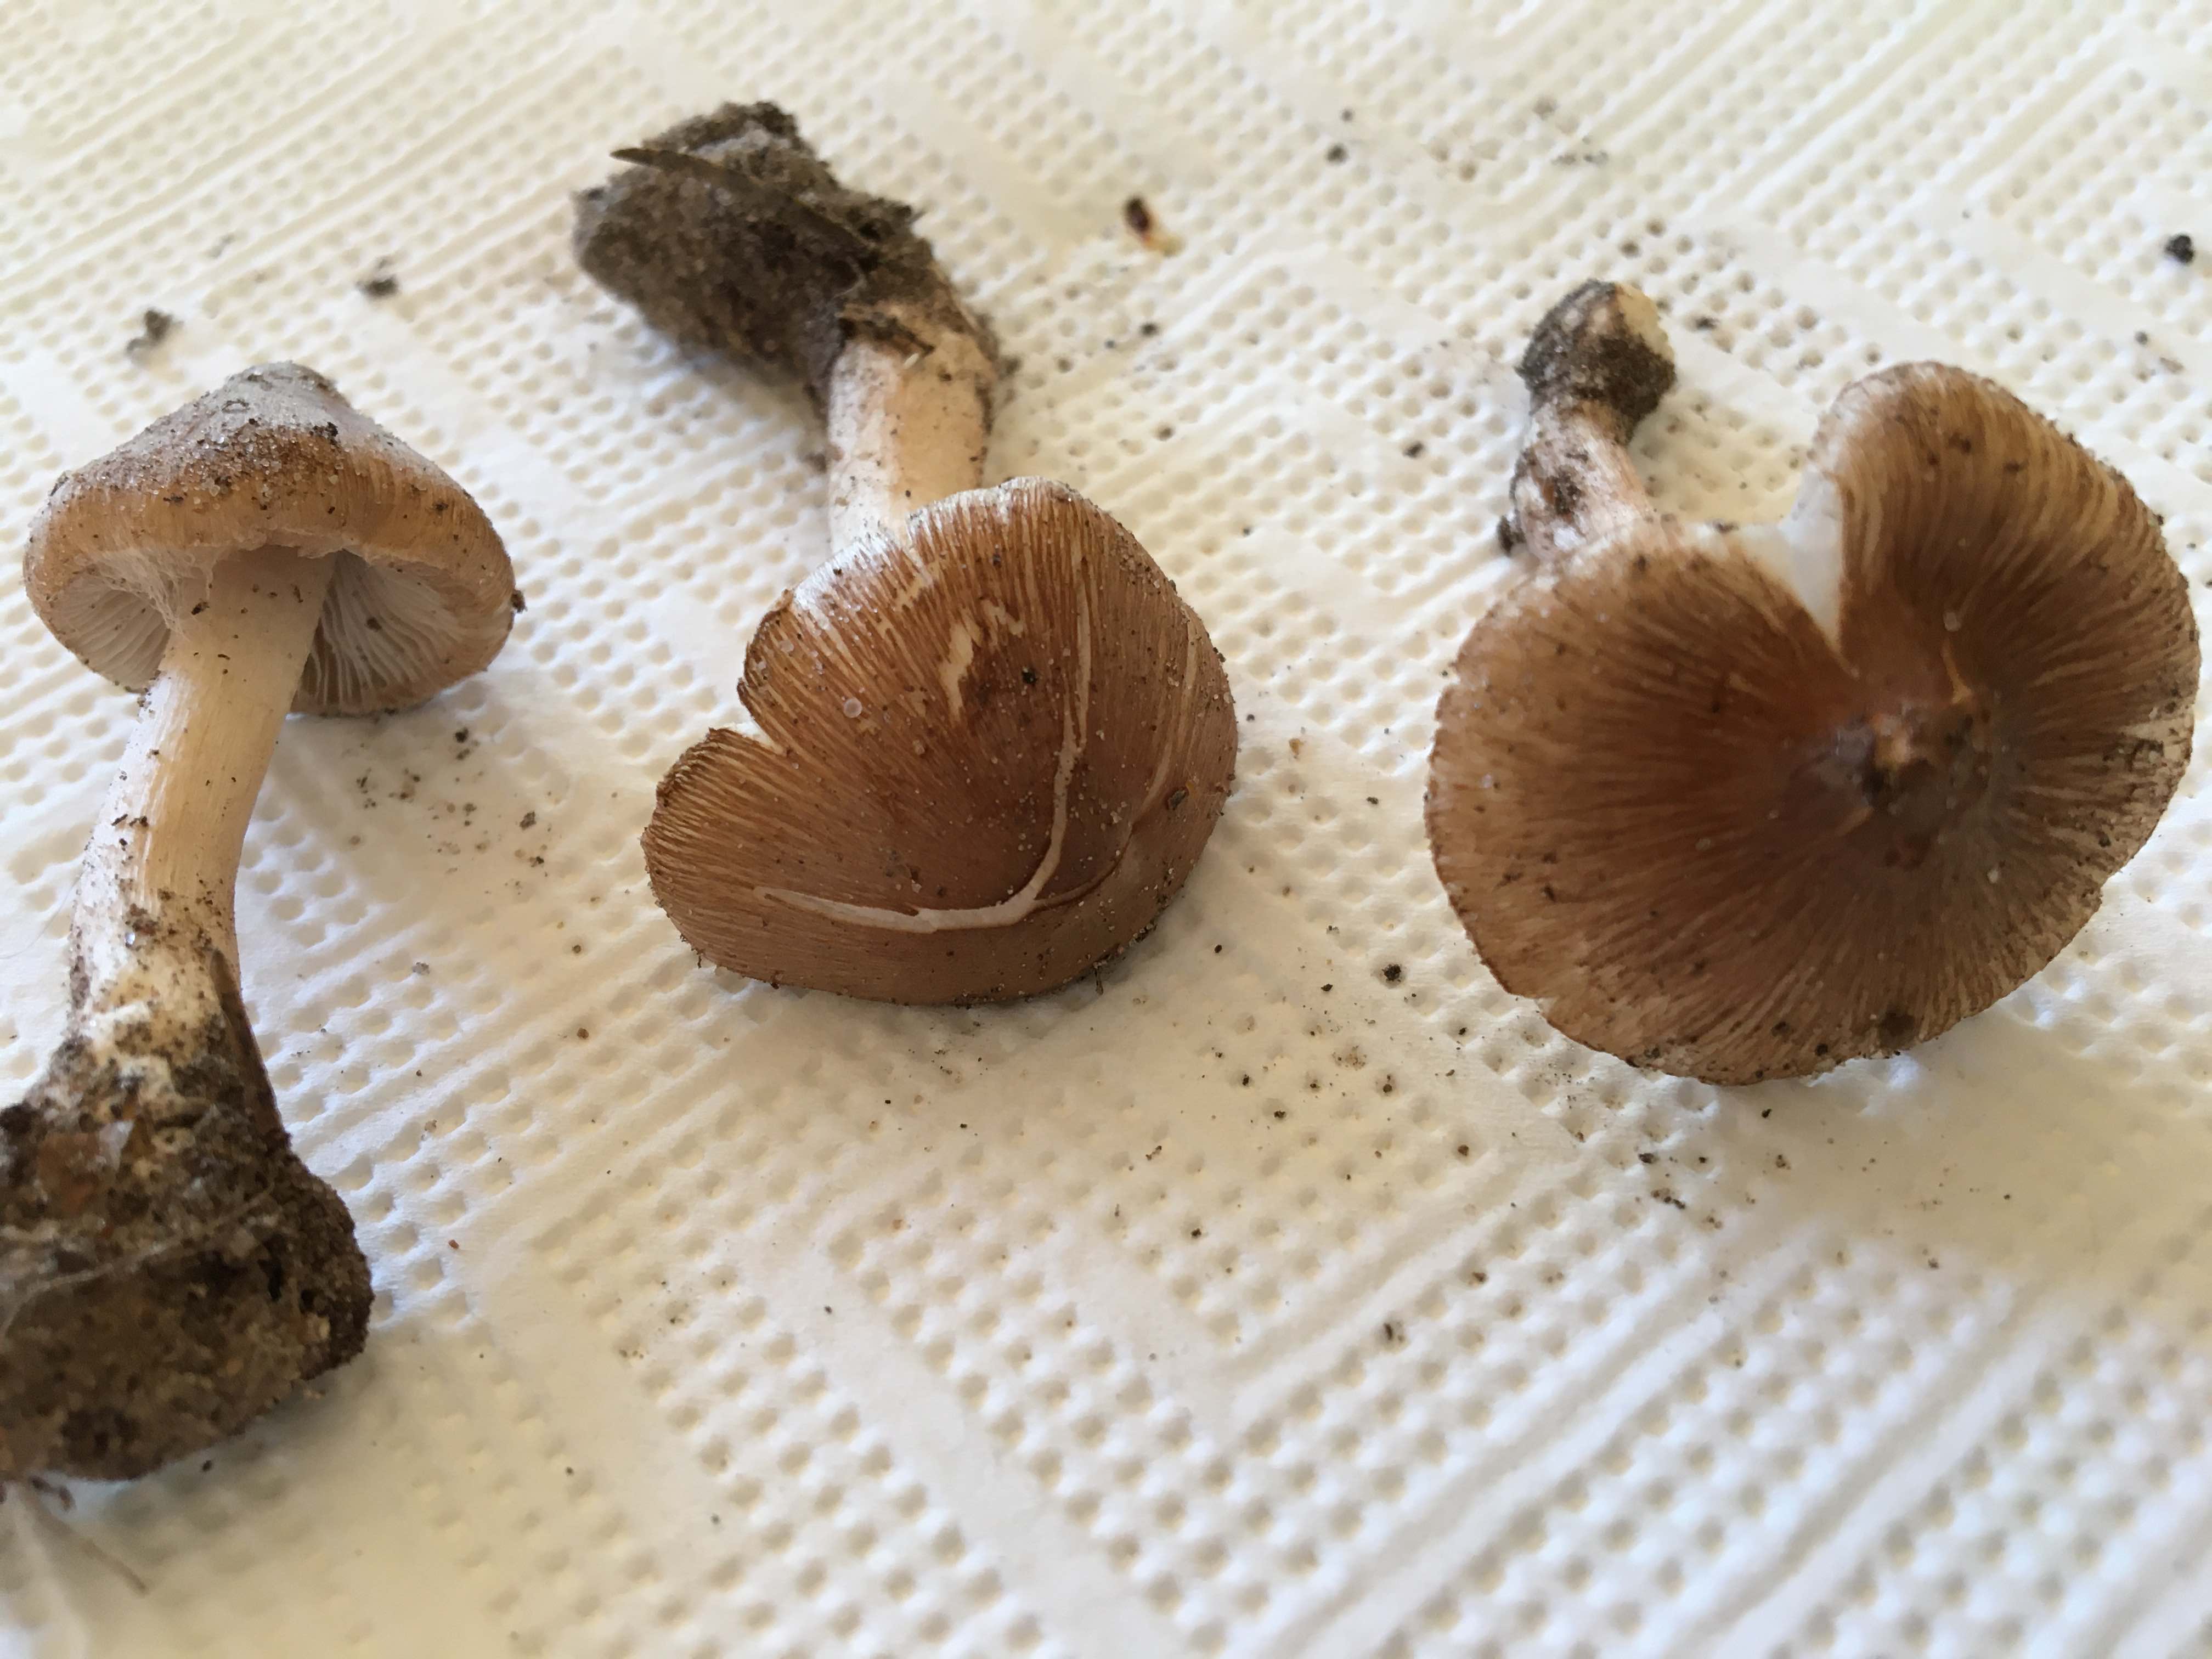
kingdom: Fungi
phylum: Basidiomycota
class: Agaricomycetes
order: Agaricales
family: Inocybaceae
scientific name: Inocybaceae
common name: trævlhatfamilien
